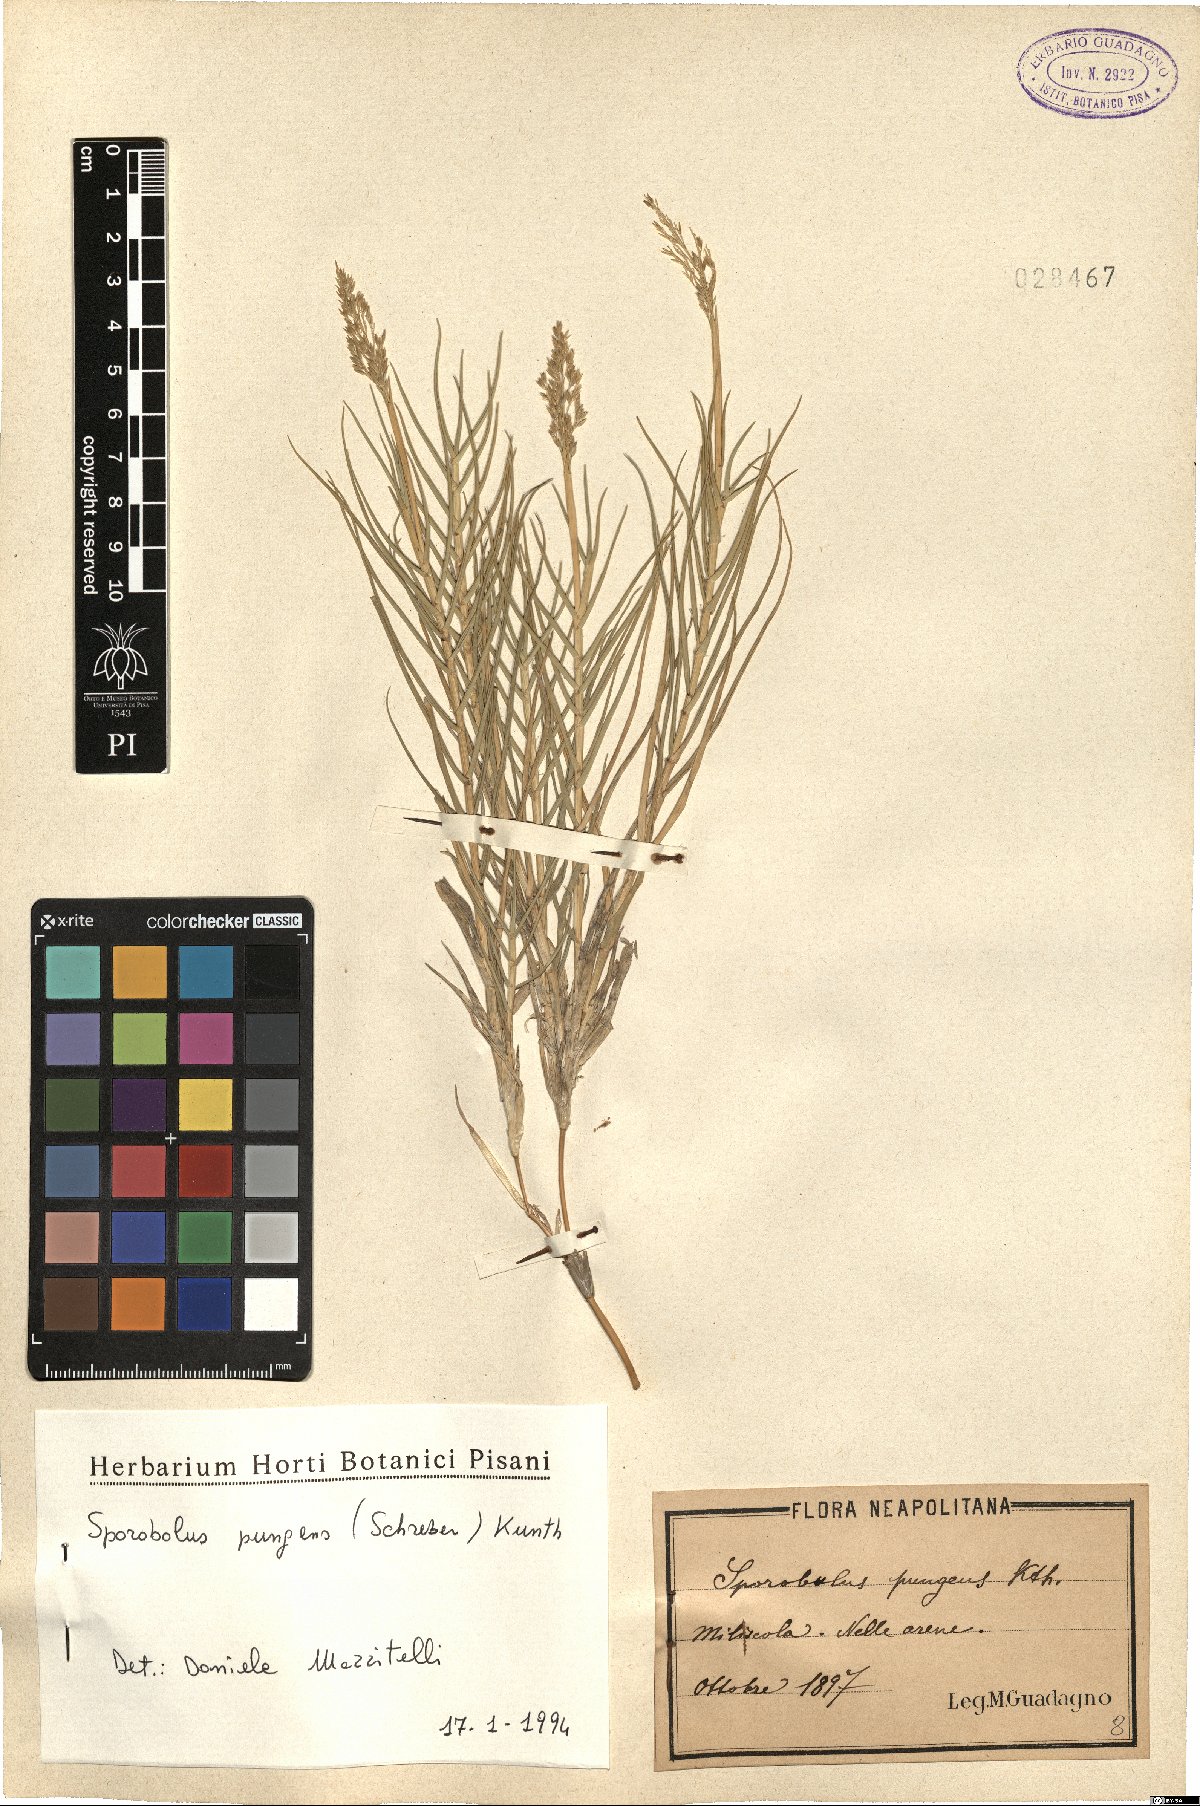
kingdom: Plantae
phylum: Tracheophyta
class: Liliopsida
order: Poales
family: Poaceae
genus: Sporobolus
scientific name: Sporobolus pungens
